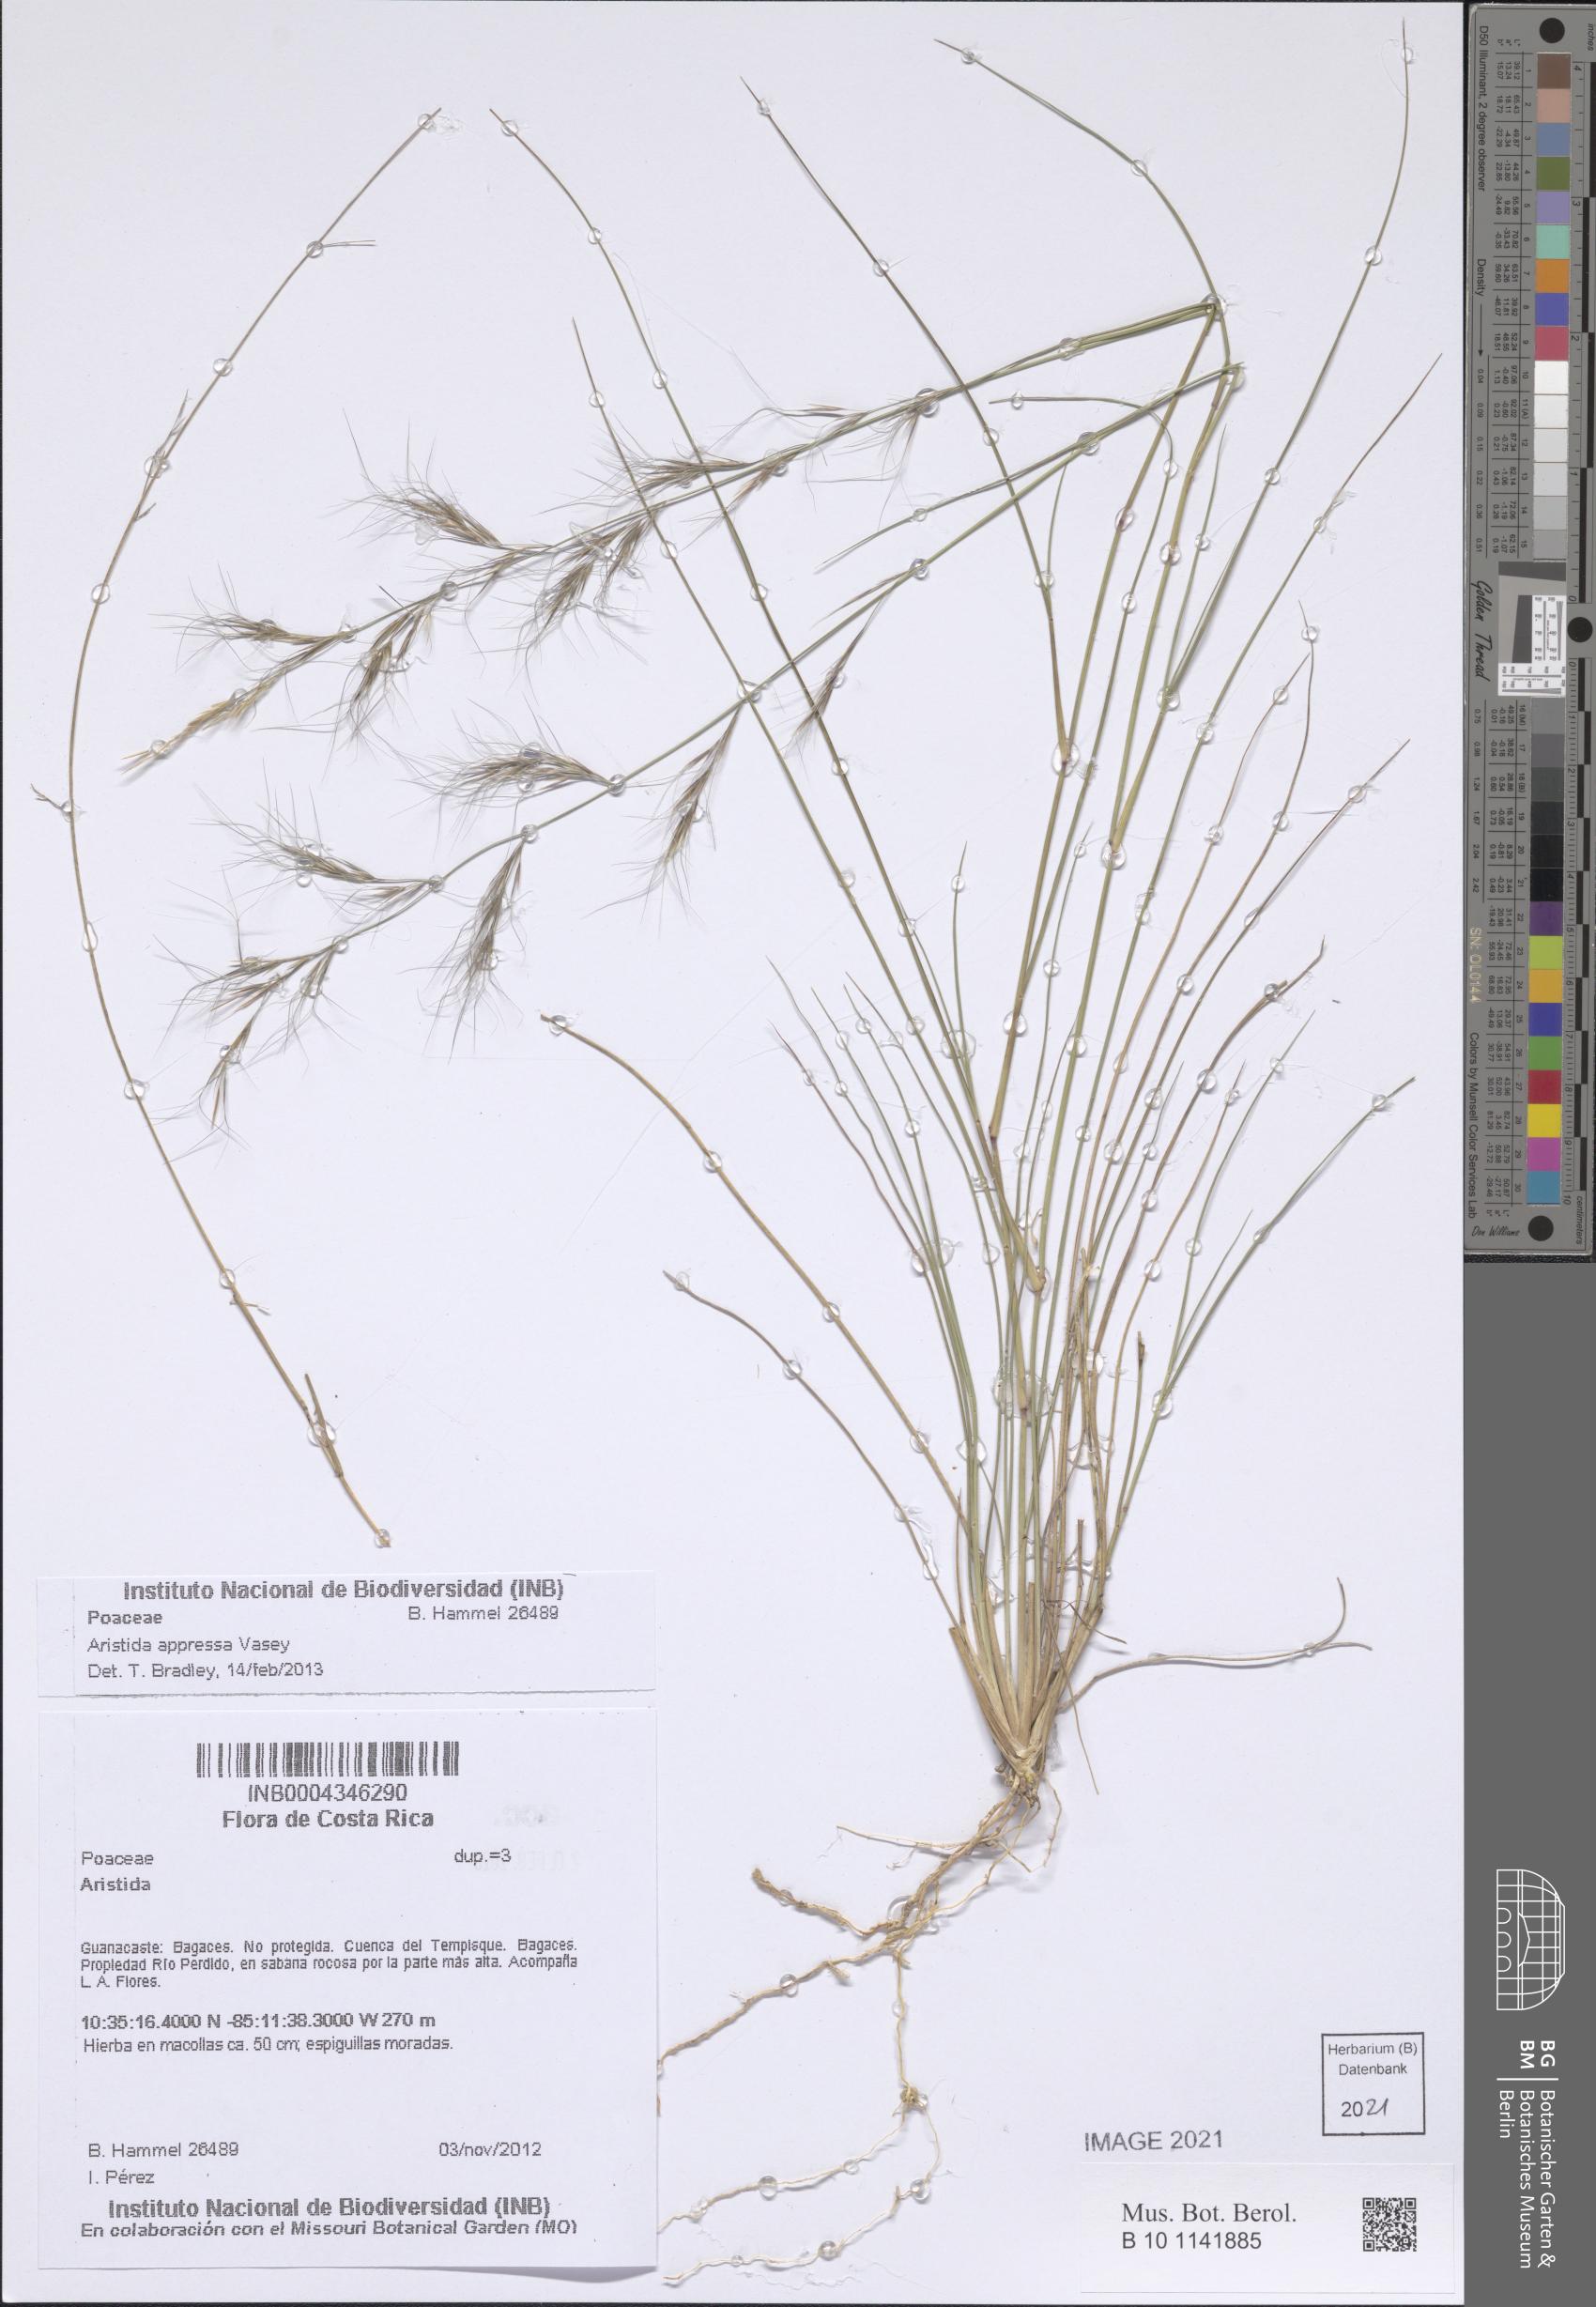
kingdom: Plantae
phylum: Tracheophyta
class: Liliopsida
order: Poales
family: Poaceae
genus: Aristida
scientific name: Aristida appressa
